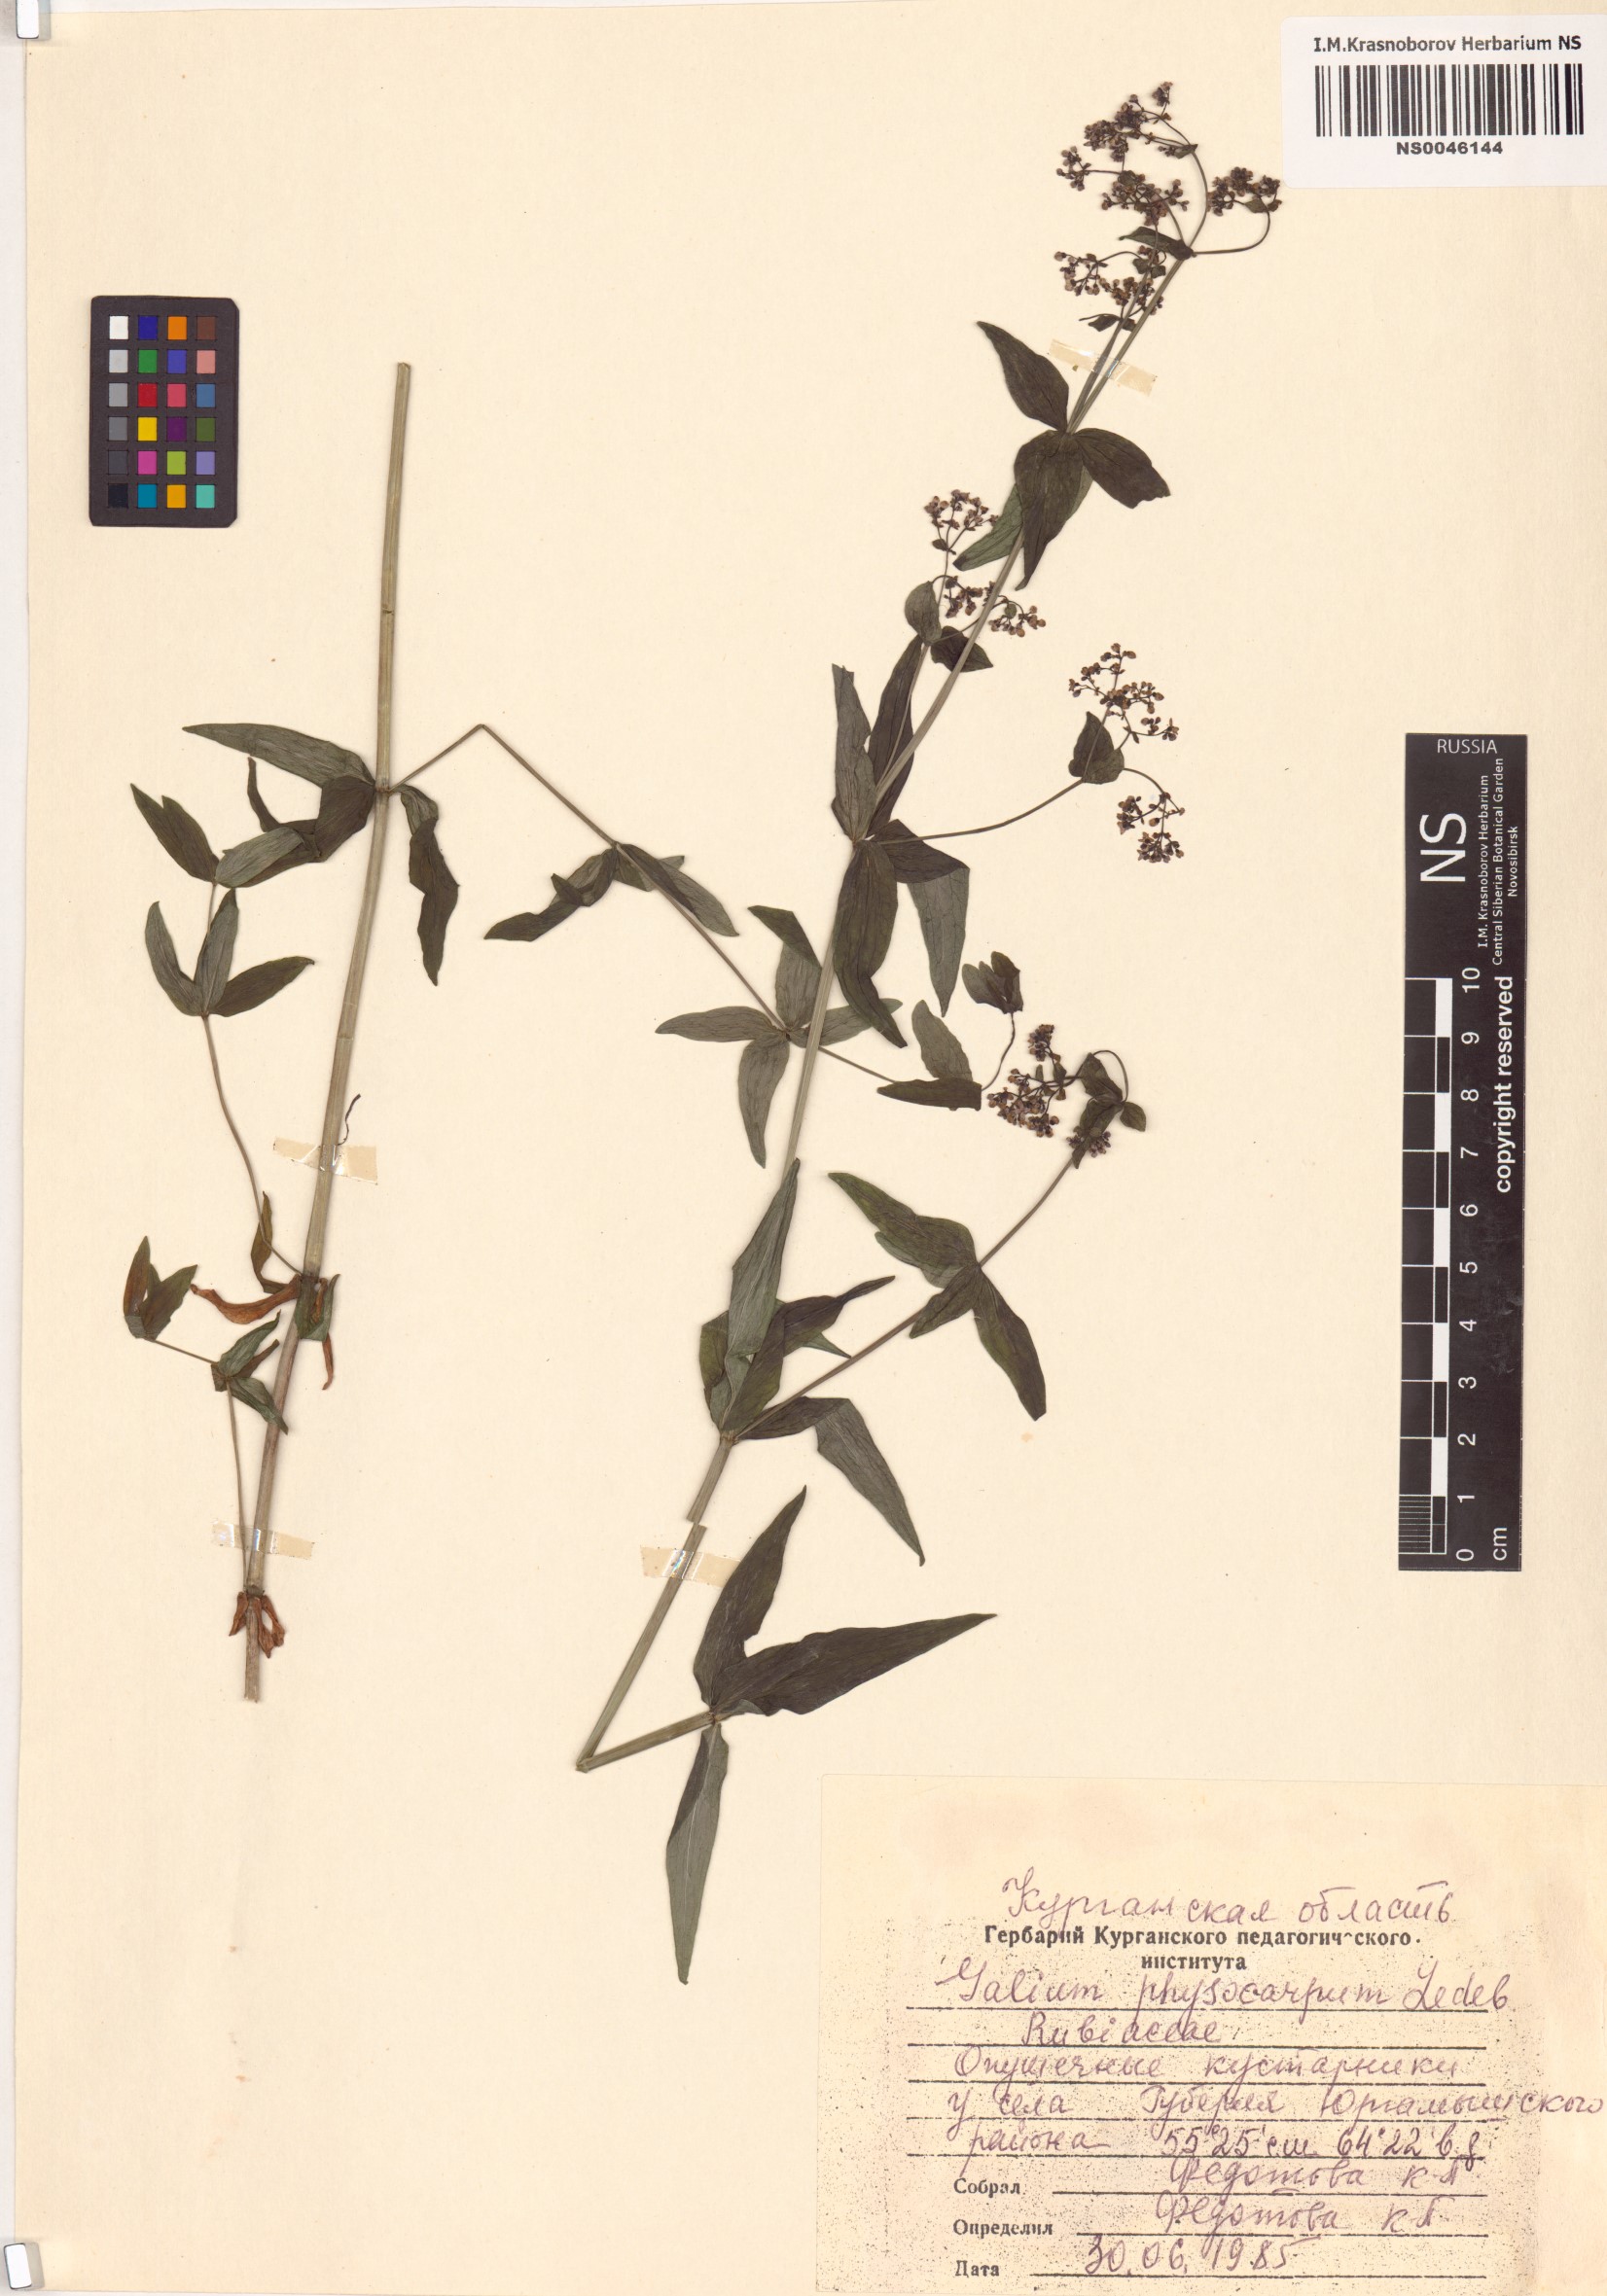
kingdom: Plantae
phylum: Tracheophyta
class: Magnoliopsida
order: Gentianales
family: Rubiaceae
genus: Galium
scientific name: Galium rubioides
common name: European bedstraw
